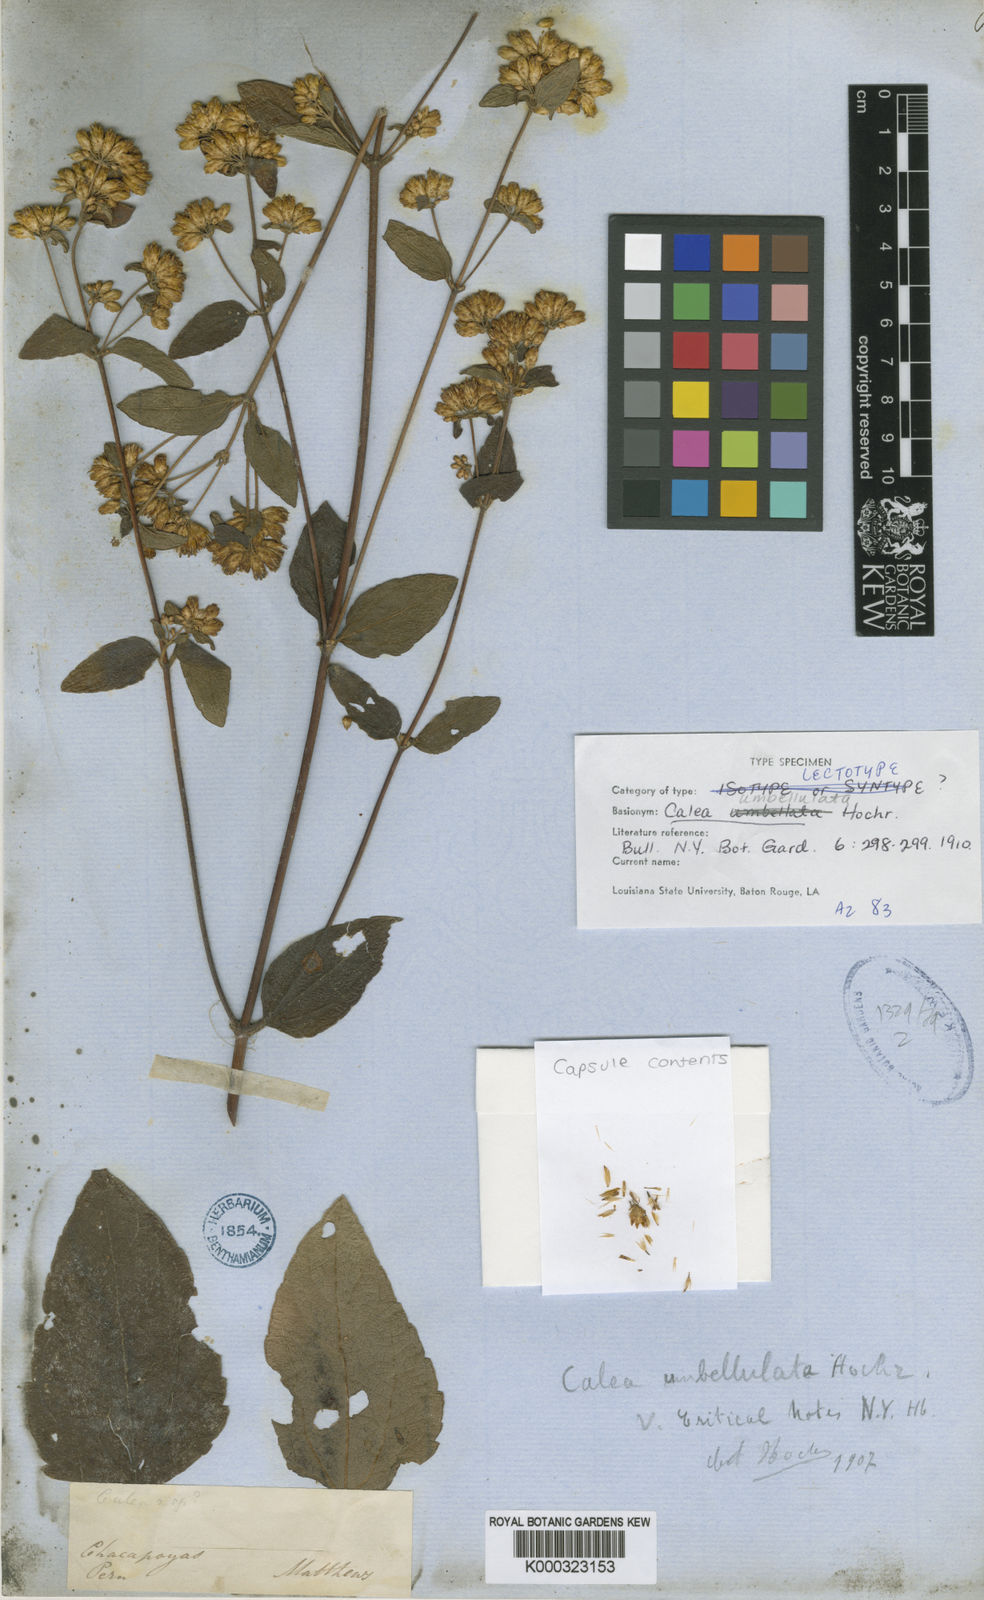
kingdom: Plantae
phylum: Tracheophyta
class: Magnoliopsida
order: Asterales
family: Asteraceae
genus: Calea
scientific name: Calea umbellulata
